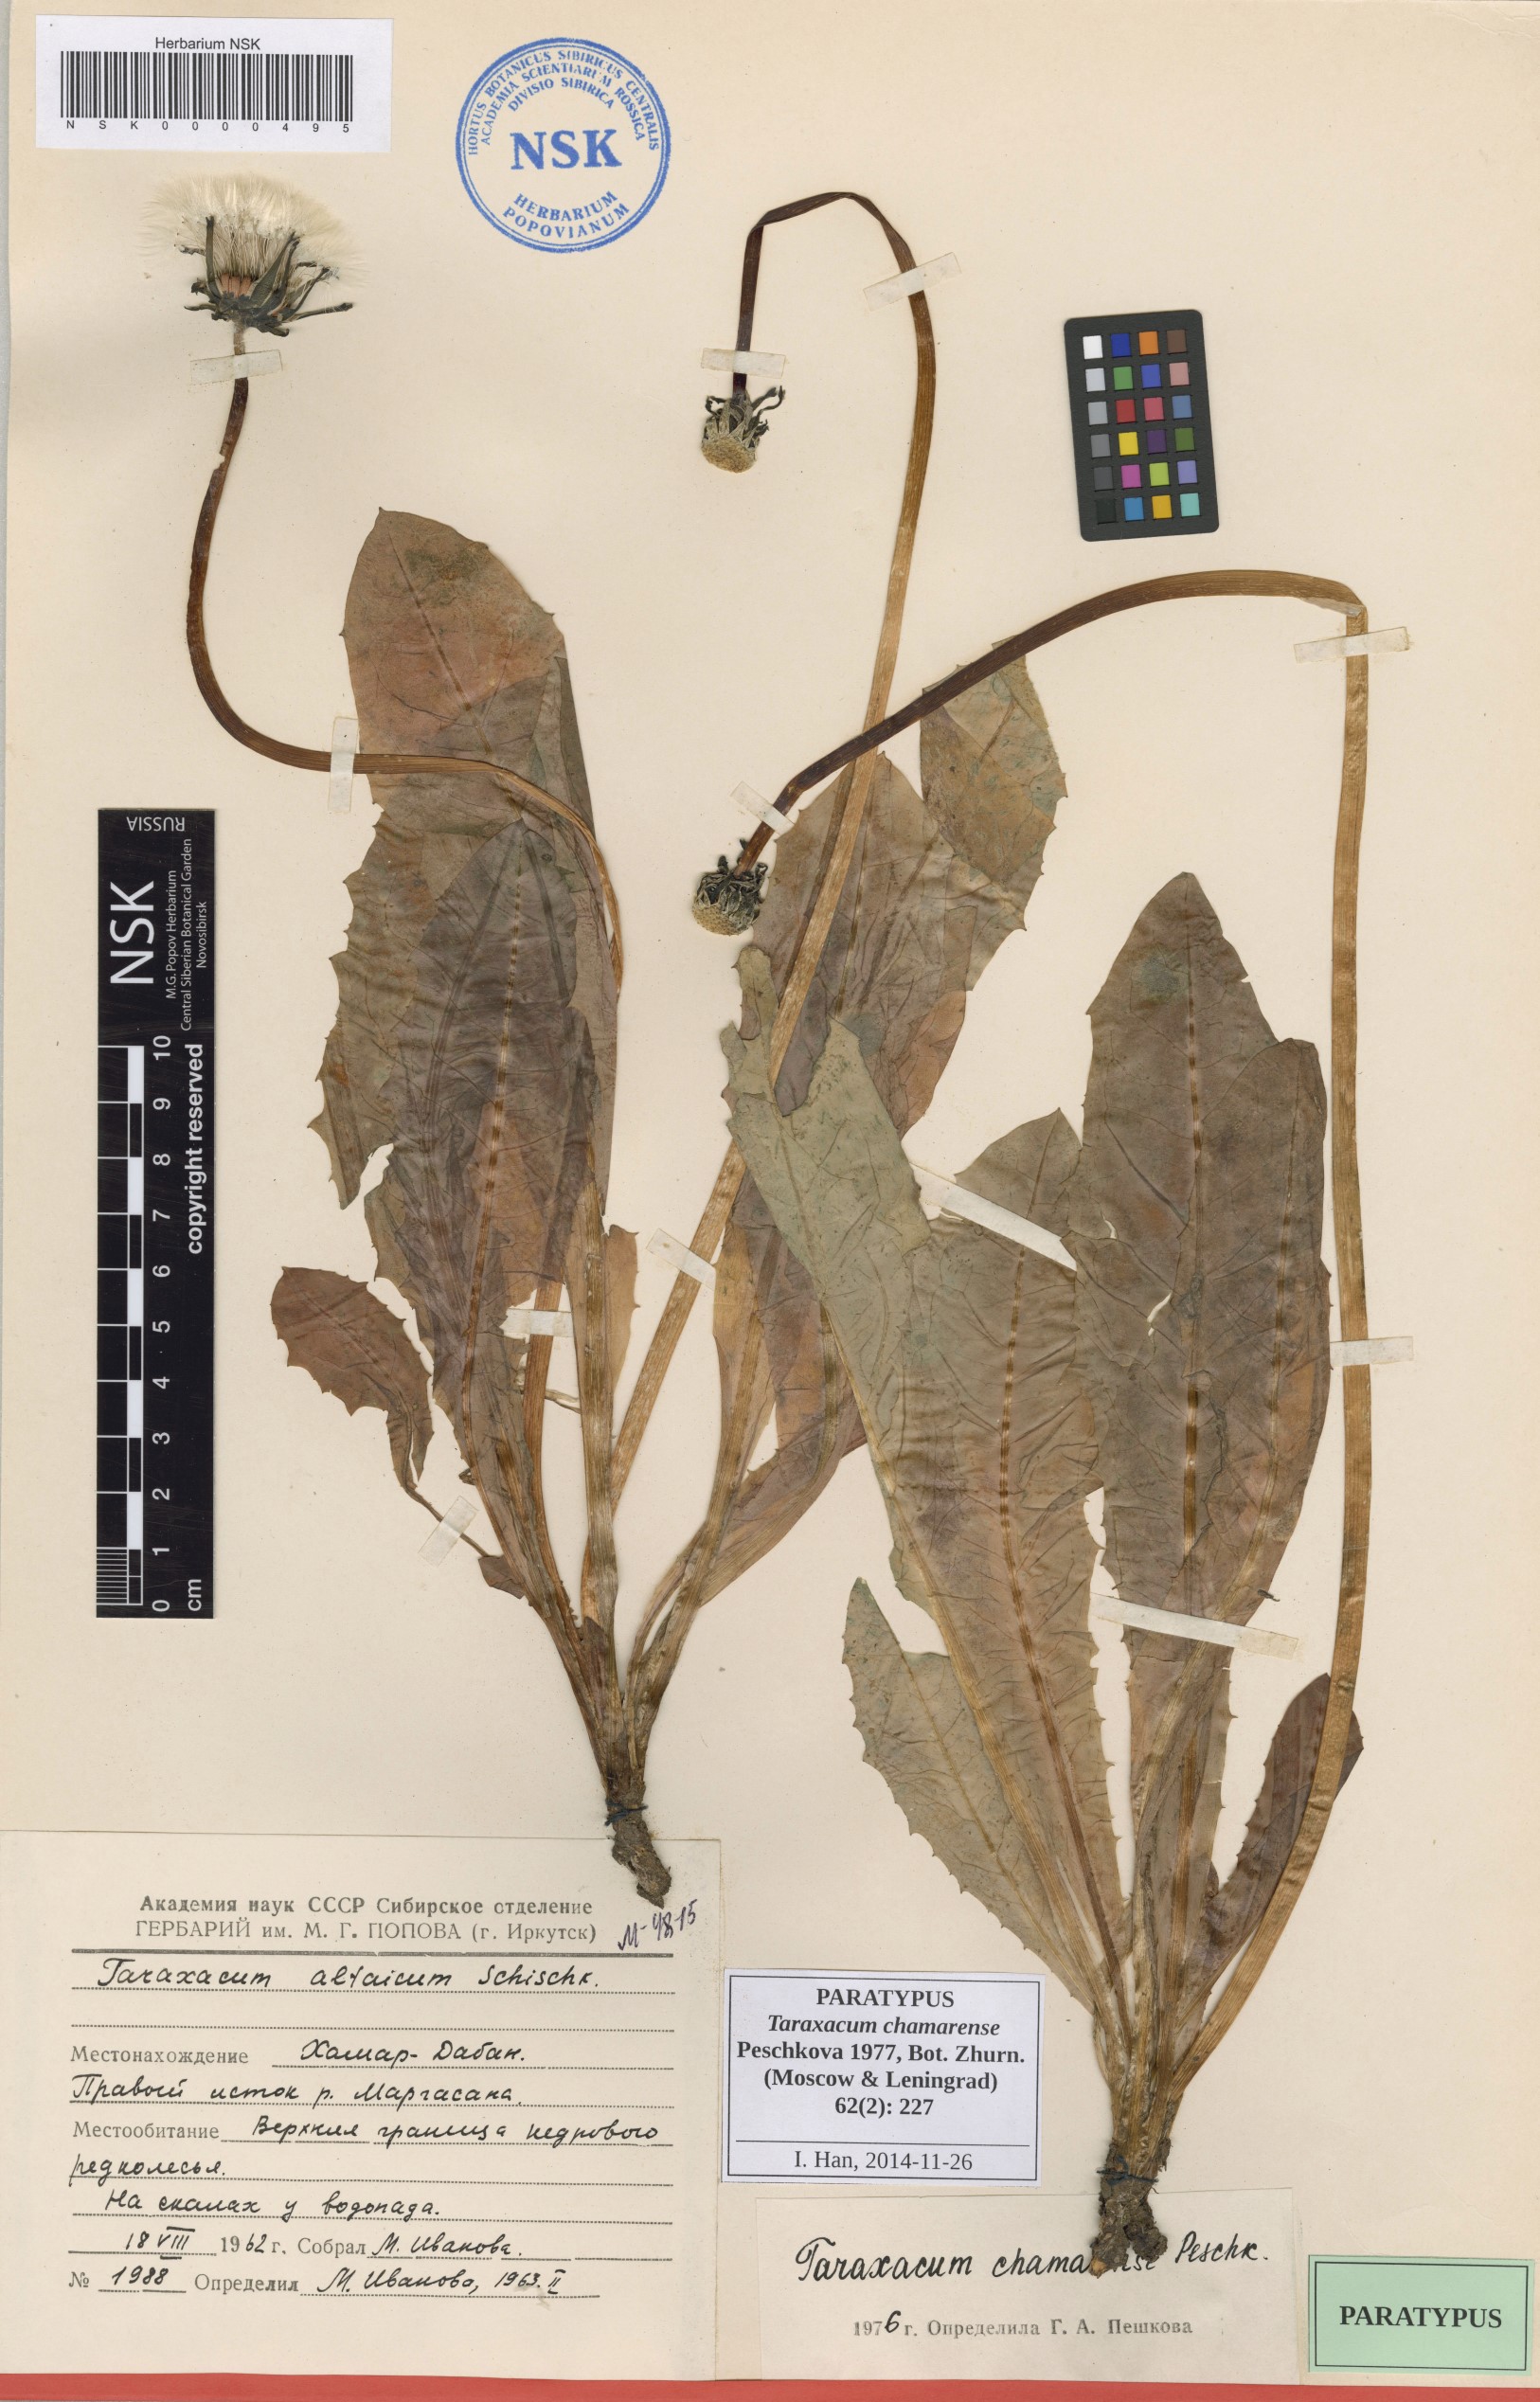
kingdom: Plantae
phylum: Tracheophyta
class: Magnoliopsida
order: Asterales
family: Asteraceae
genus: Taraxacum
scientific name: Taraxacum ceratophorum
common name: Horn-bearing dandelion
